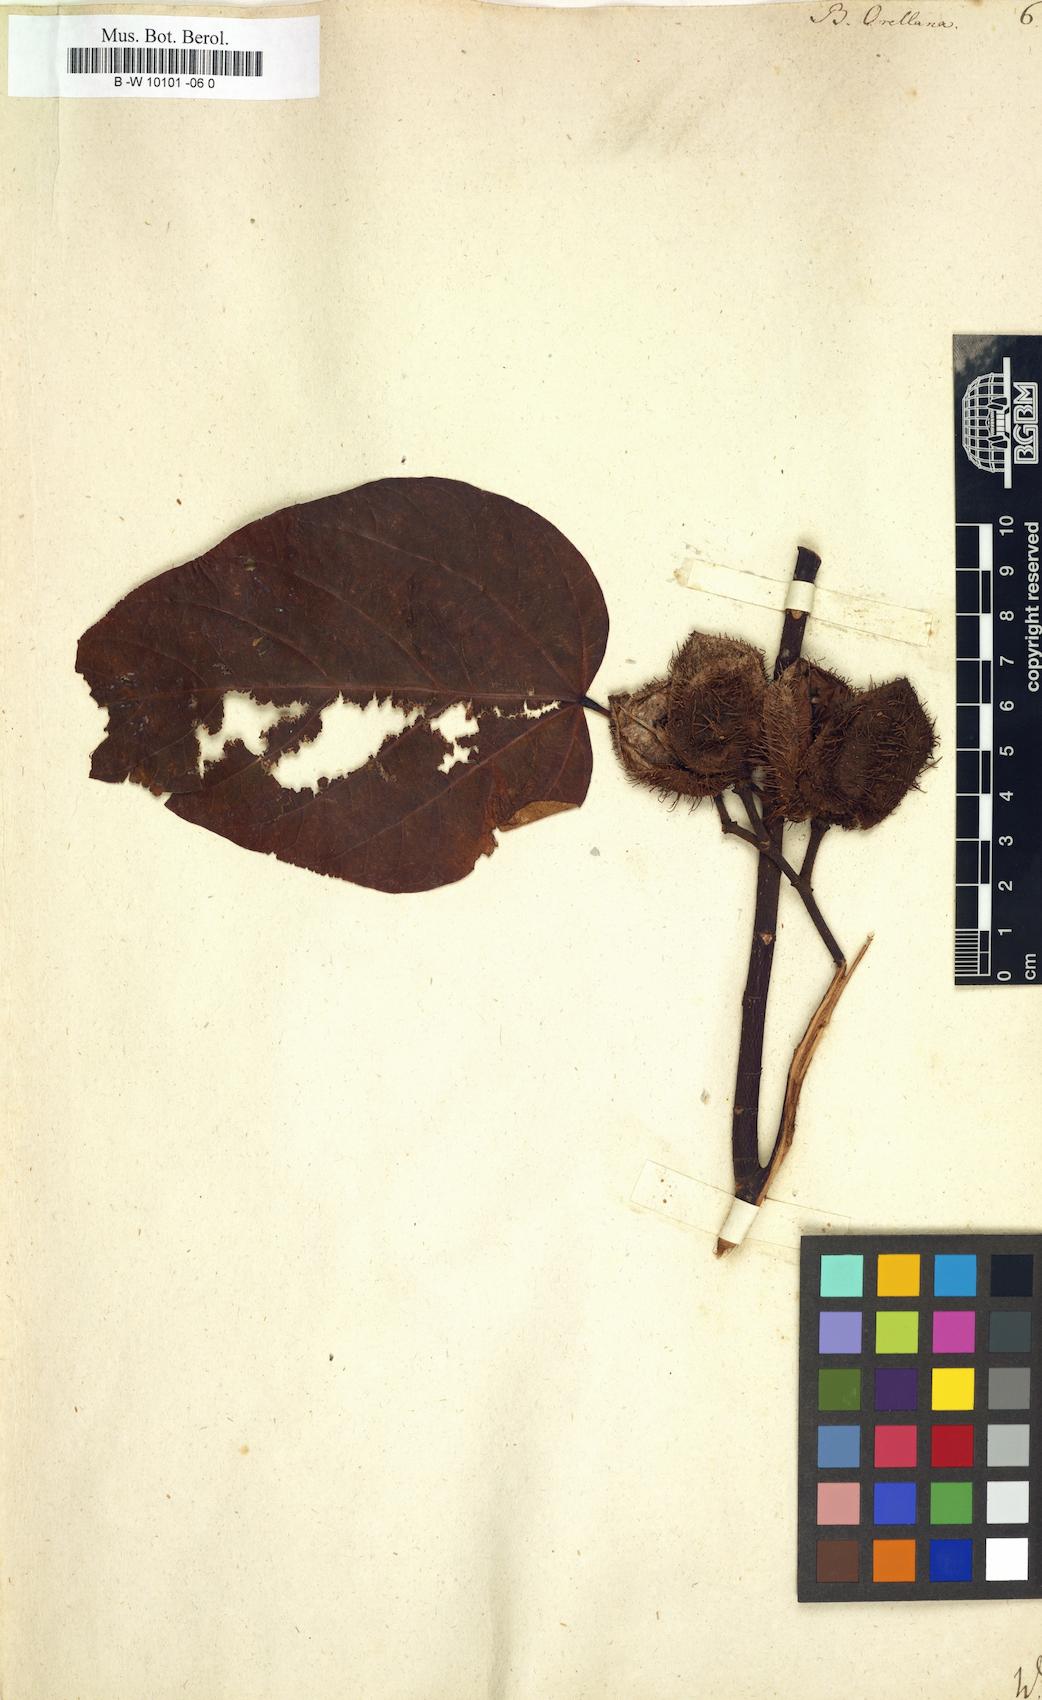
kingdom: Plantae
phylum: Tracheophyta
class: Magnoliopsida
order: Malvales
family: Bixaceae
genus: Bixa
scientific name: Bixa orellana
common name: Lipsticktree
